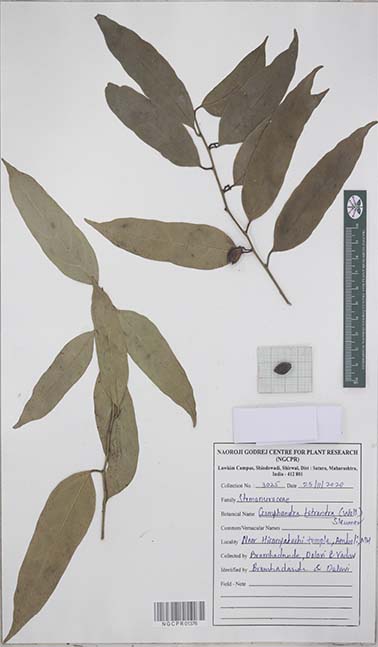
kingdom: Plantae
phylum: Tracheophyta
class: Magnoliopsida
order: Cardiopteridales
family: Stemonuraceae
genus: Gomphandra
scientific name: Gomphandra tetrandra
